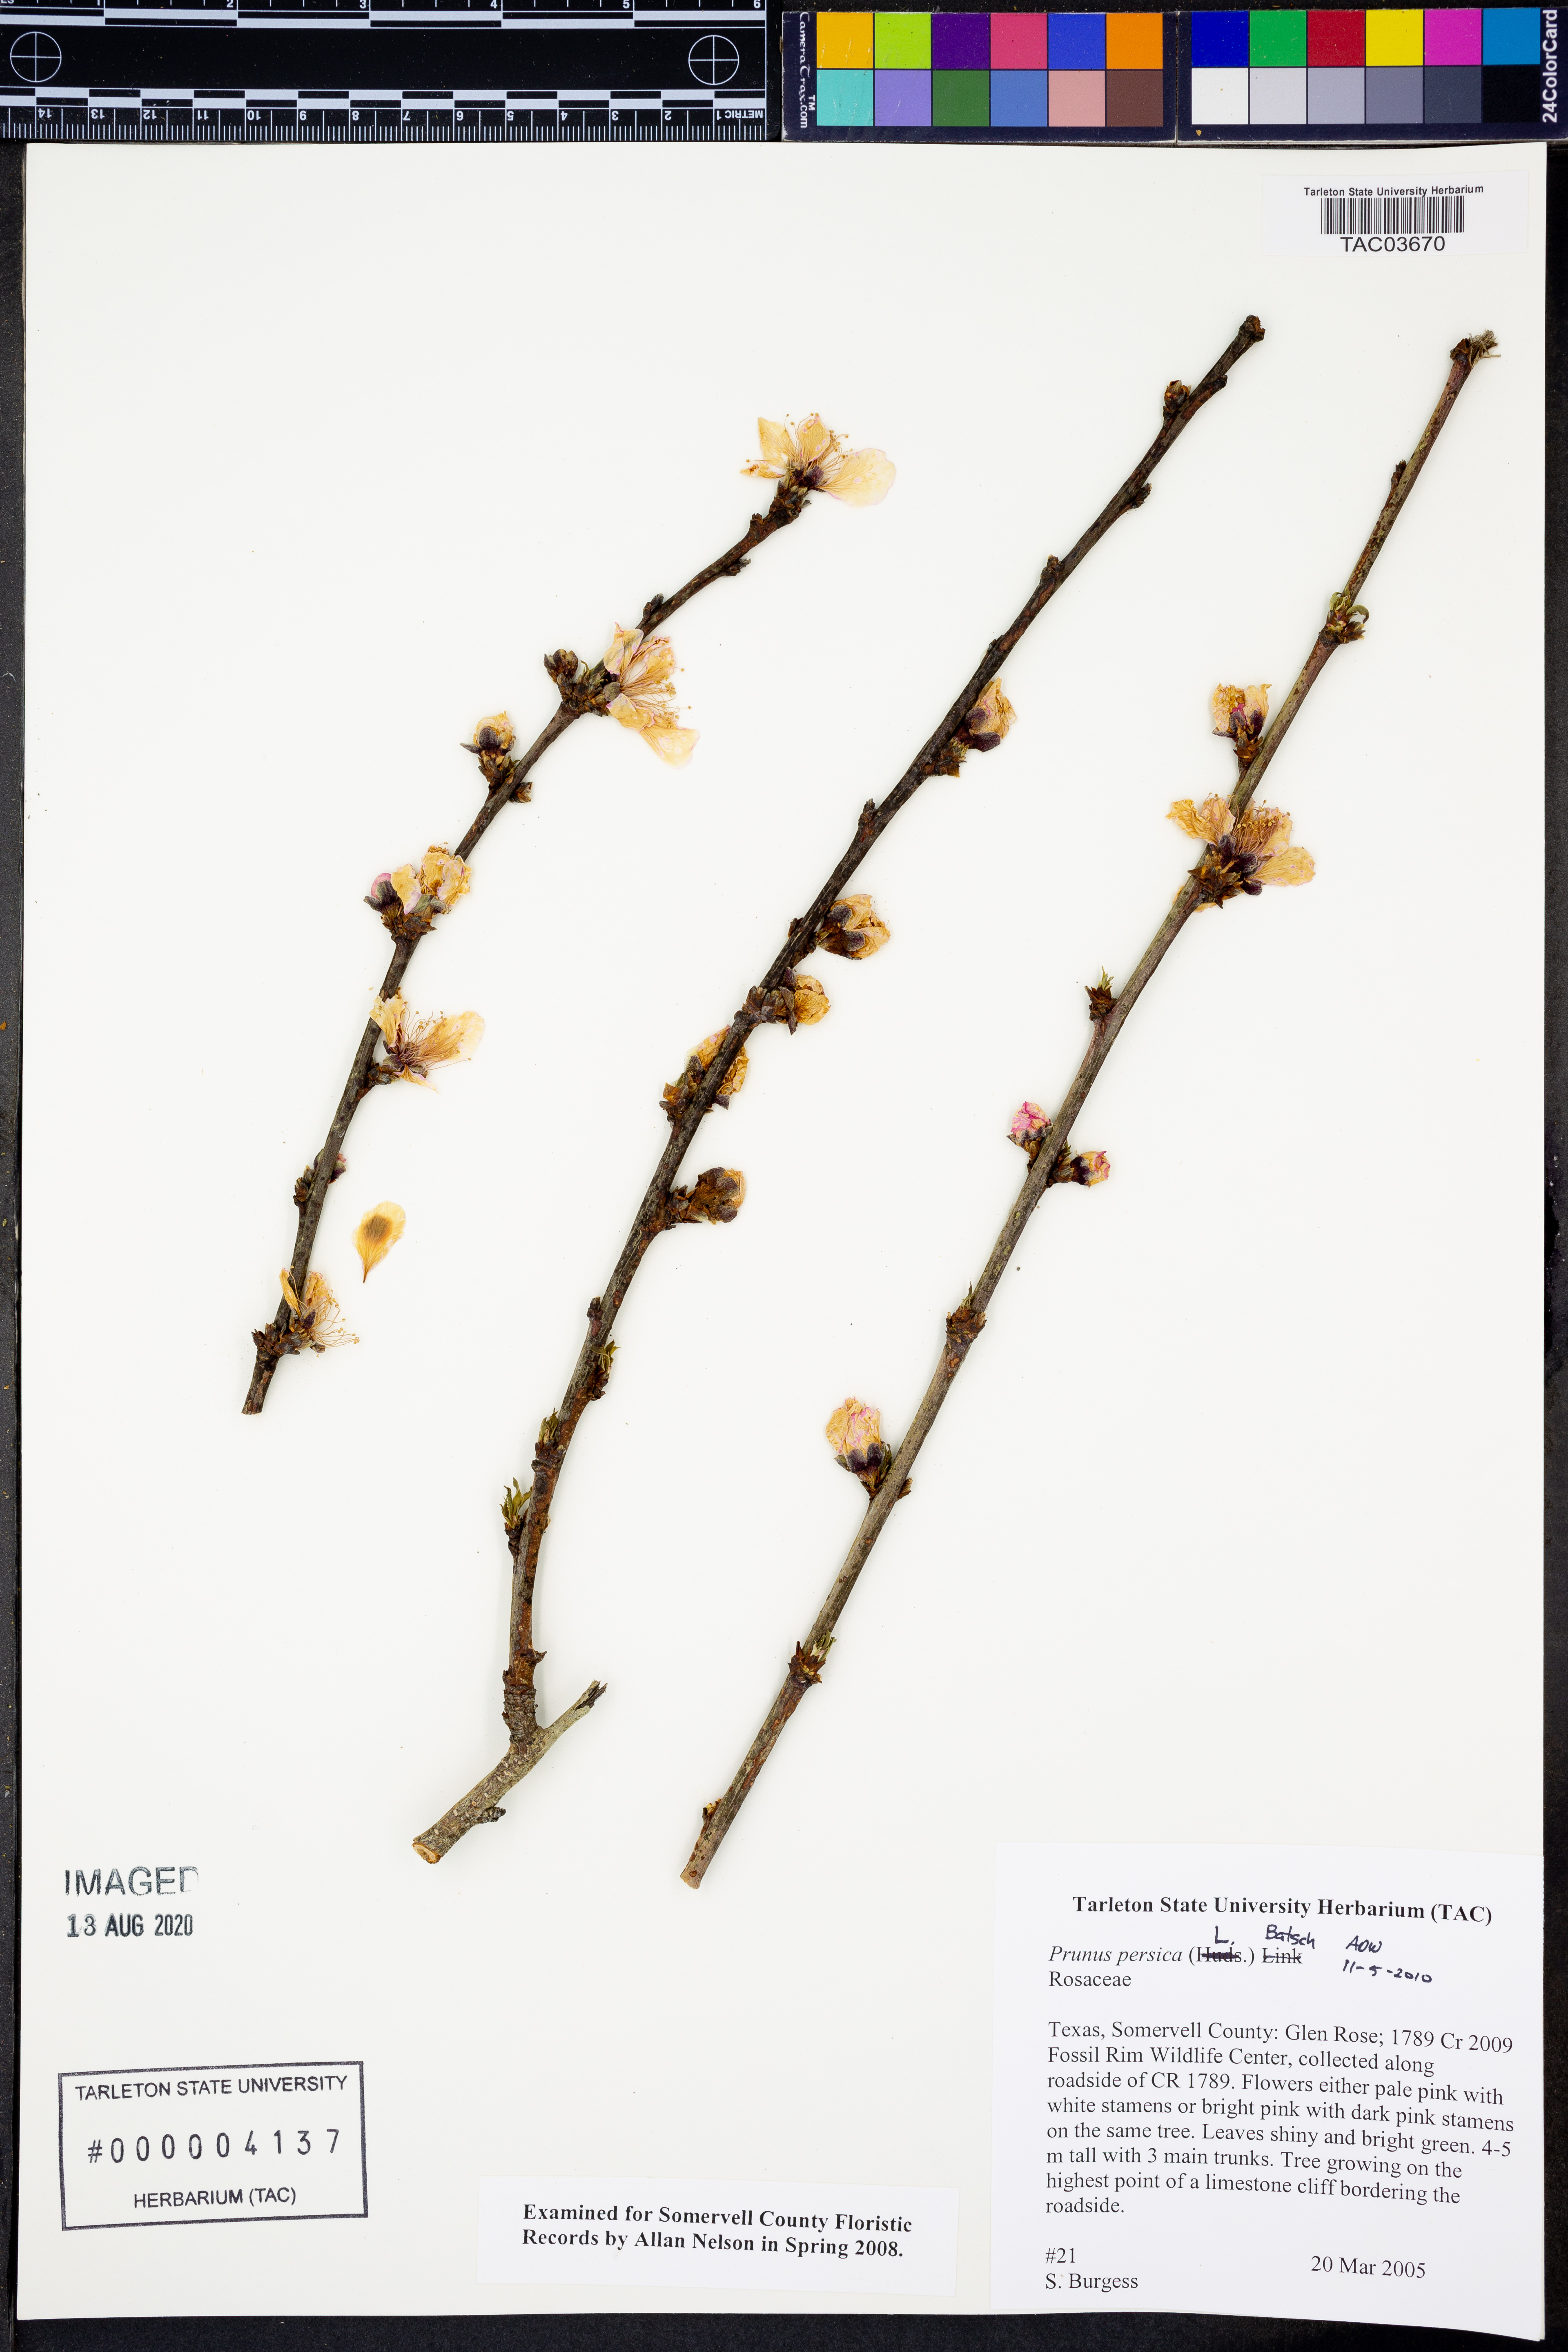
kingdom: Plantae
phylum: Tracheophyta
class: Magnoliopsida
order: Rosales
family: Rosaceae
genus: Prunus
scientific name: Prunus persica
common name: Peach
